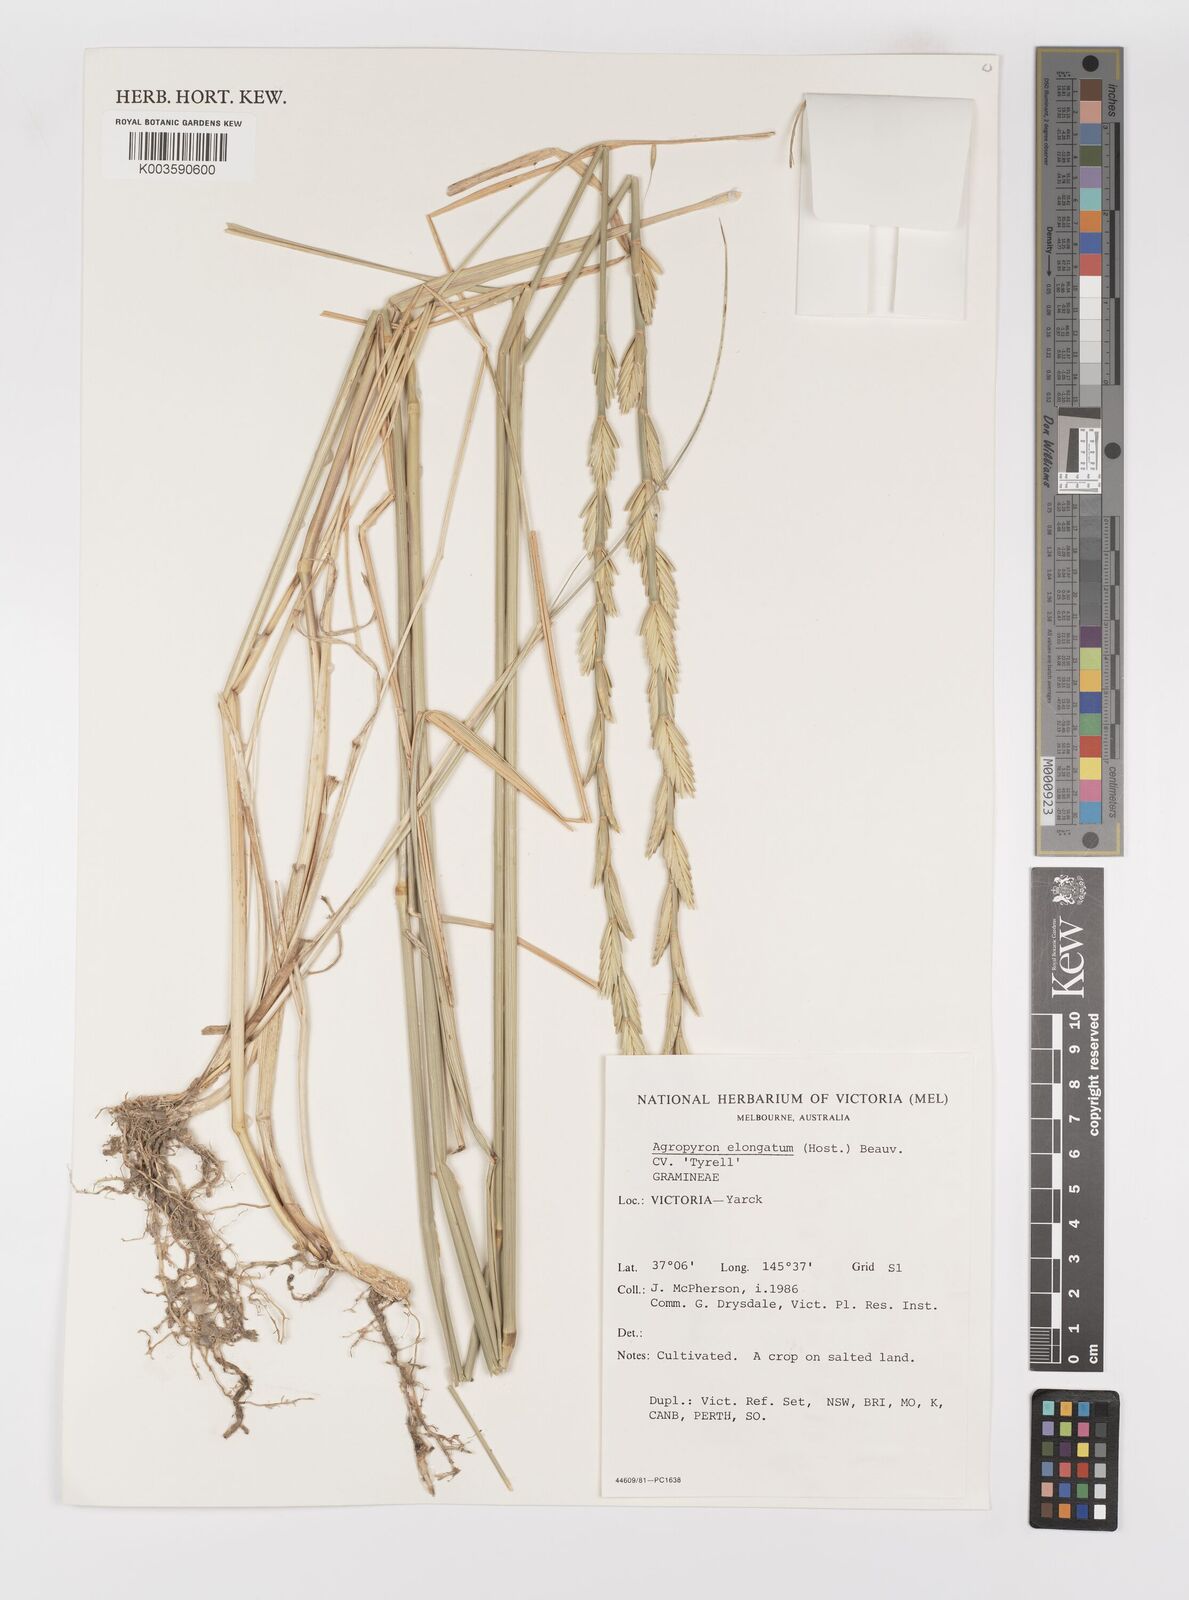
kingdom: Plantae
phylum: Tracheophyta
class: Liliopsida
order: Poales
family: Poaceae
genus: Thinopyrum
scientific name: Thinopyrum elongatum
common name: Tall wheatgrass
